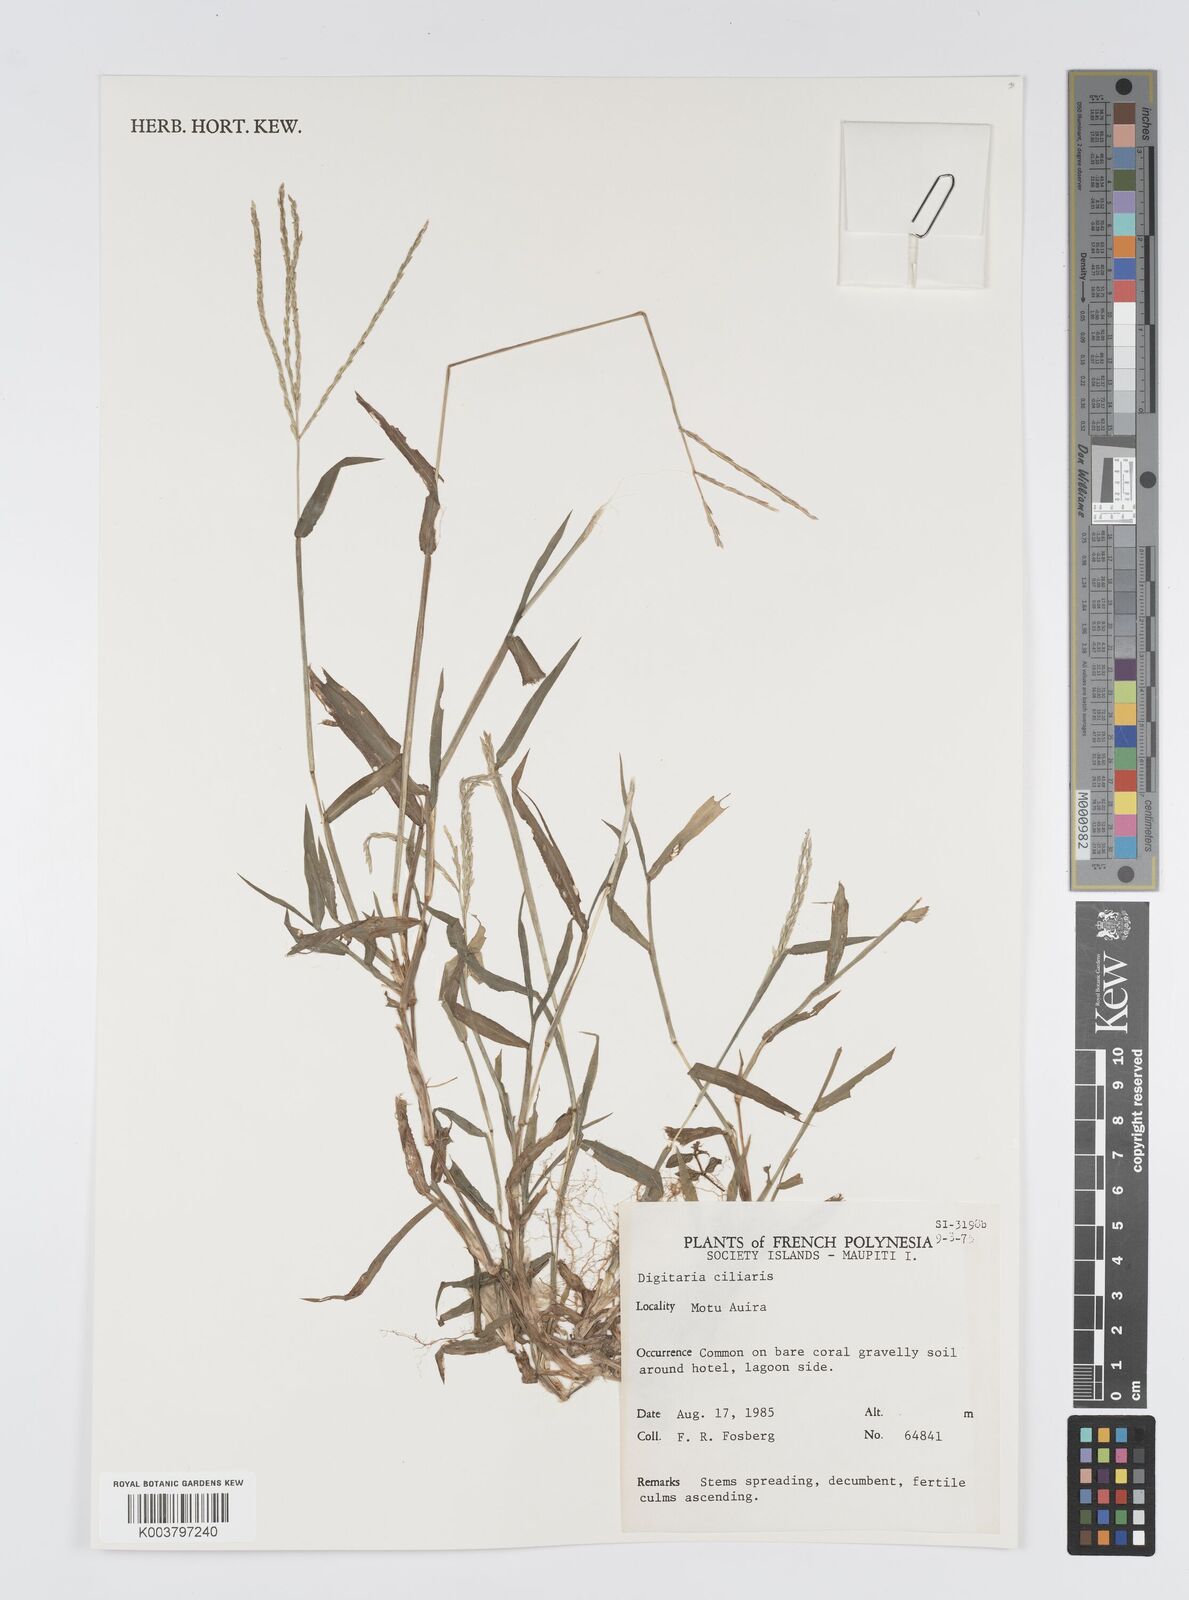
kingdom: Plantae
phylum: Tracheophyta
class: Liliopsida
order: Poales
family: Poaceae
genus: Digitaria
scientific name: Digitaria ciliaris
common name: Tropical finger-grass
